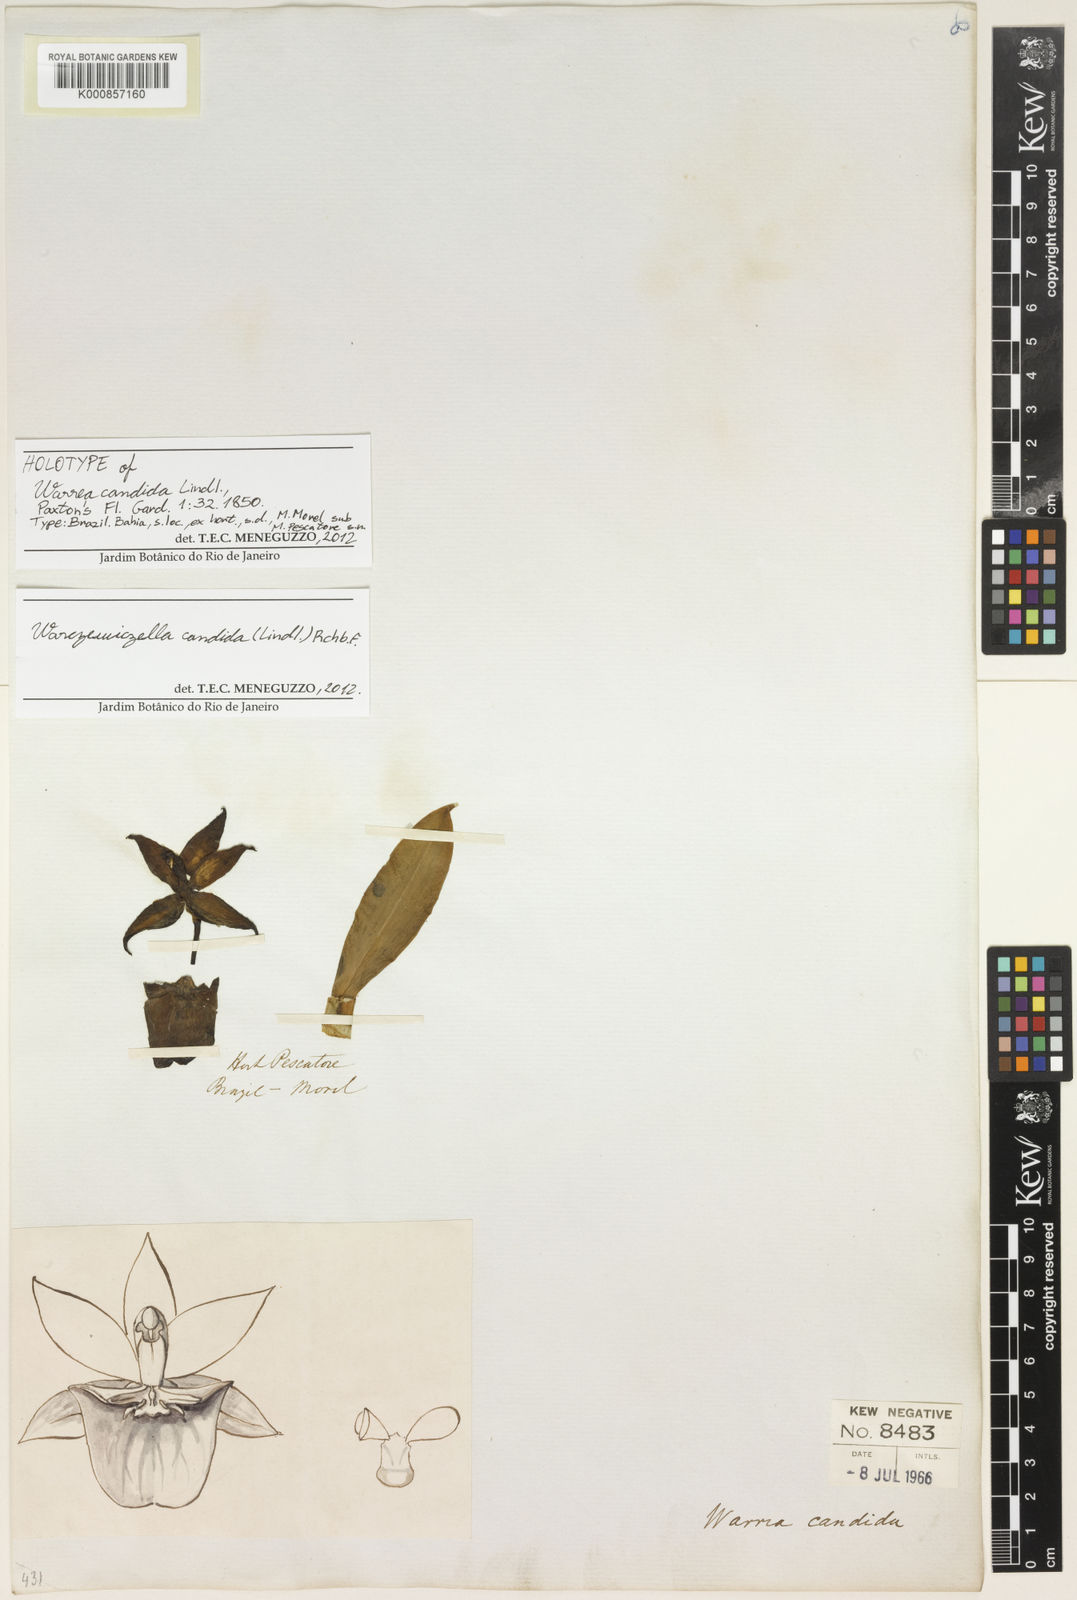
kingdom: Plantae
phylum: Tracheophyta
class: Liliopsida
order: Asparagales
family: Orchidaceae
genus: Warczewiczella
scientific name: Warczewiczella candida
